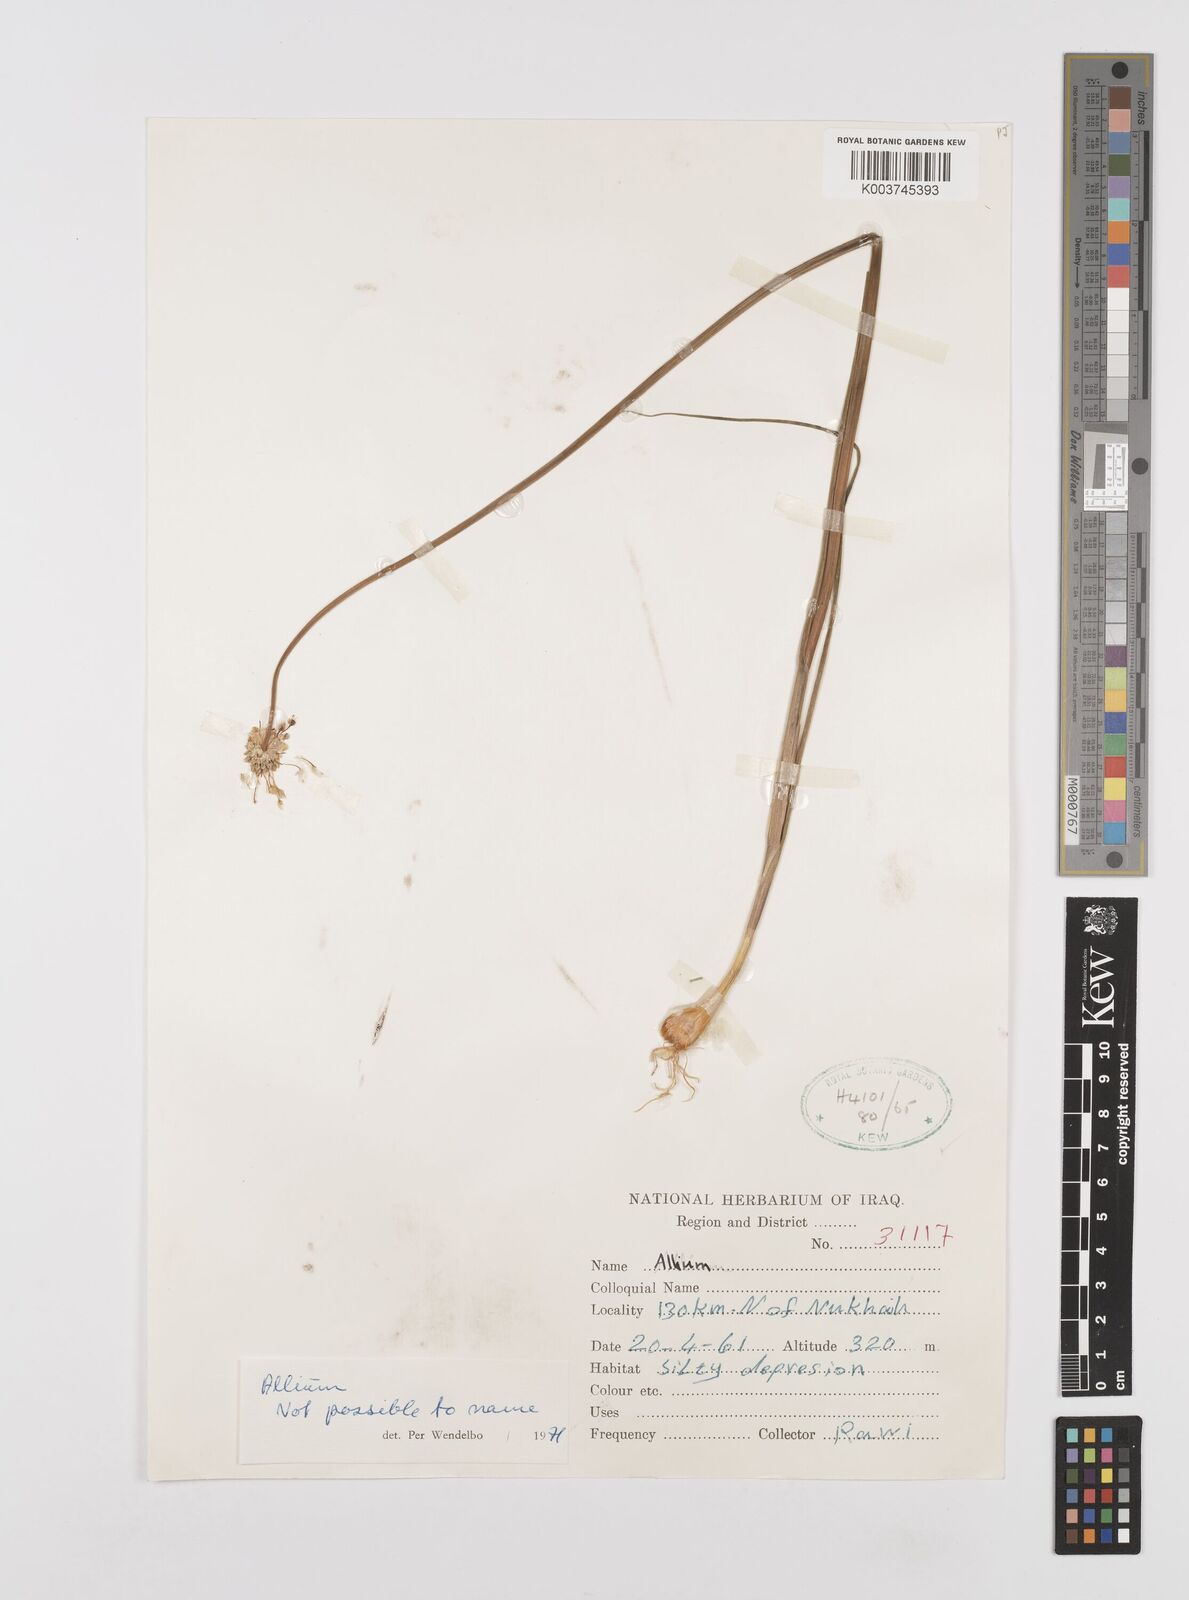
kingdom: Plantae
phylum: Tracheophyta
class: Liliopsida
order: Asparagales
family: Amaryllidaceae
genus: Allium
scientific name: Allium
